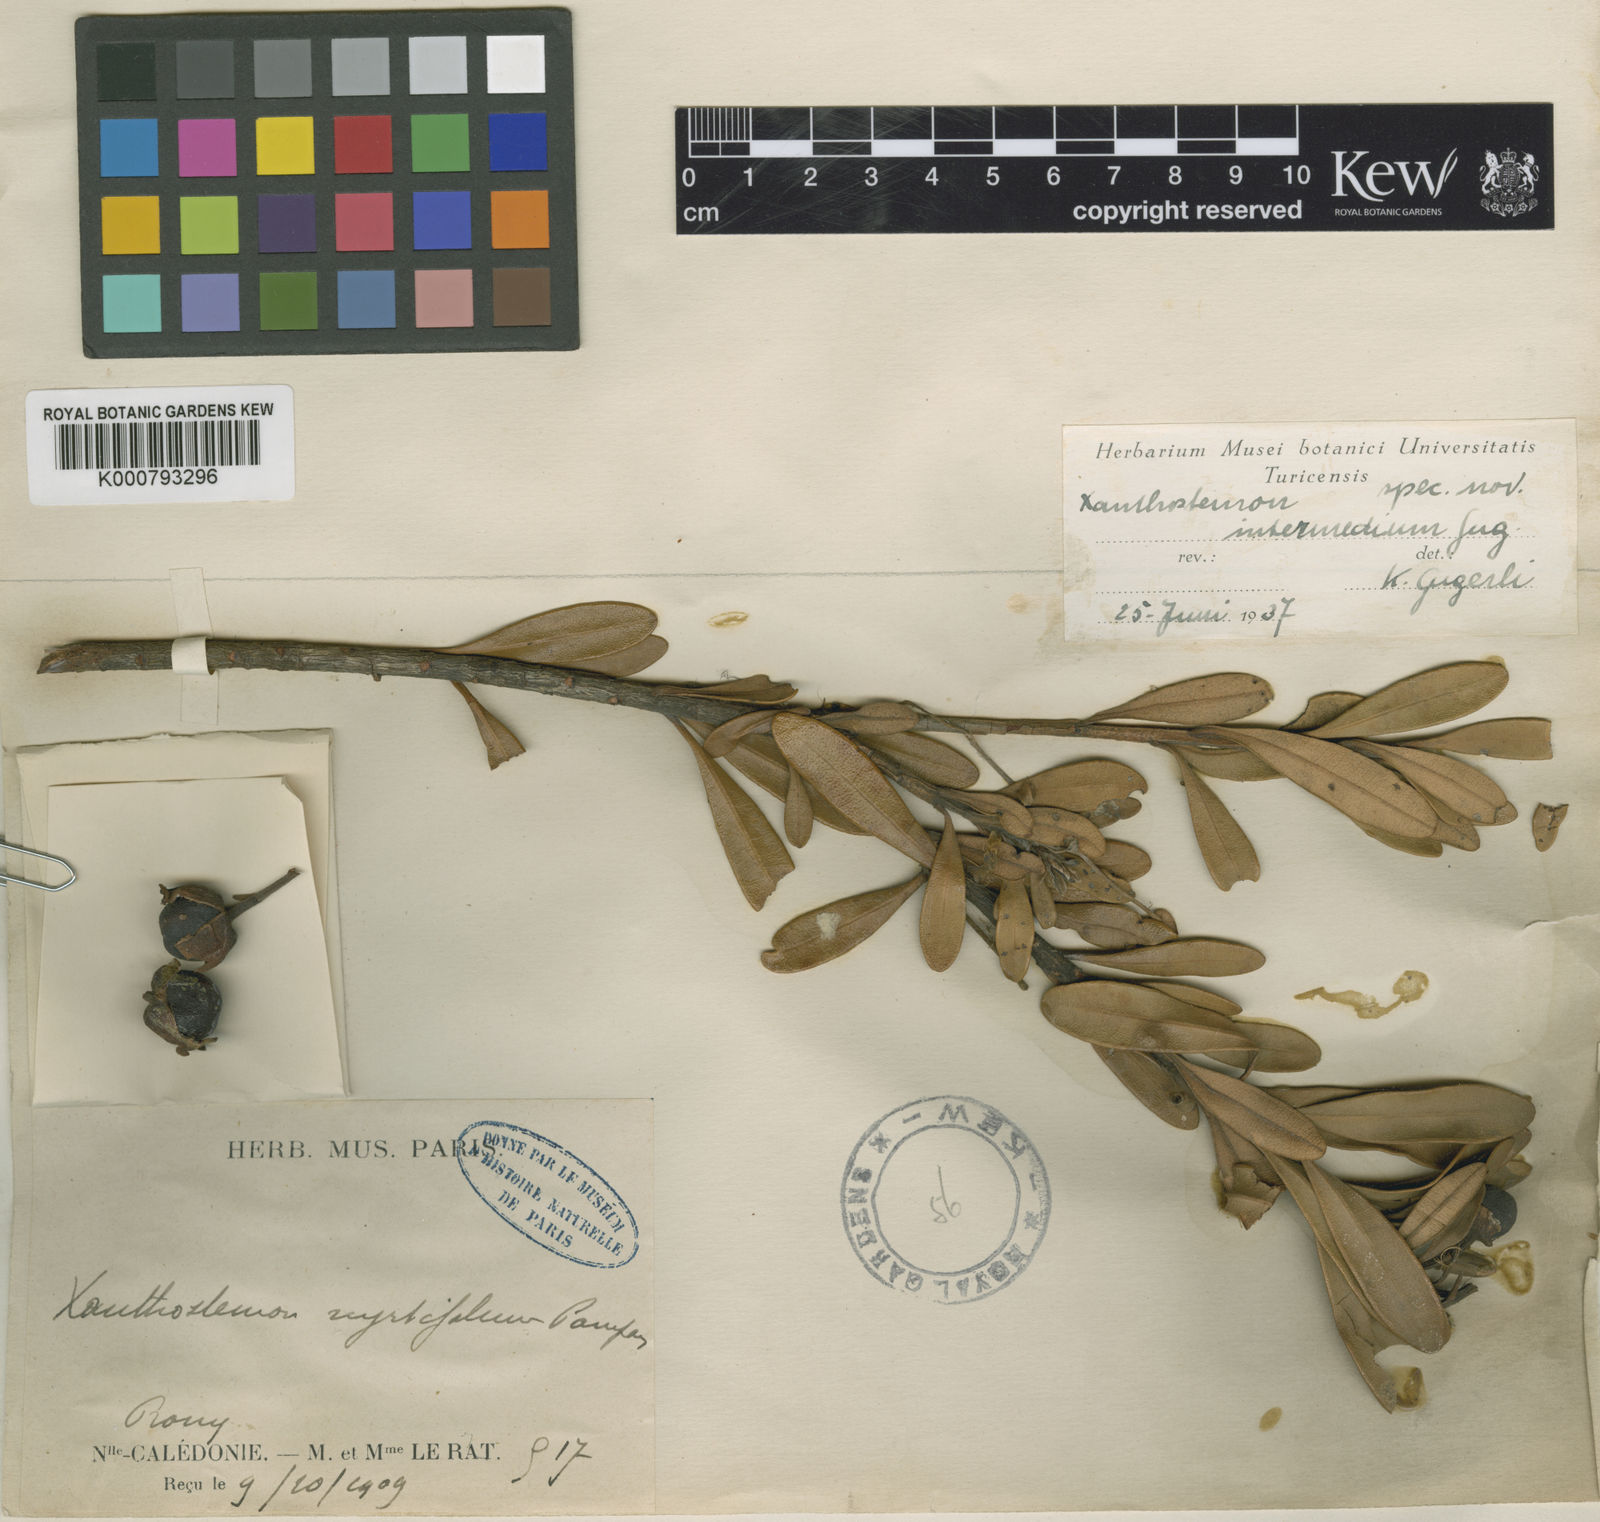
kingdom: Plantae
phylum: Tracheophyta
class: Magnoliopsida
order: Myrtales
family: Myrtaceae
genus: Xanthostemon
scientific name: Xanthostemon intermedius
